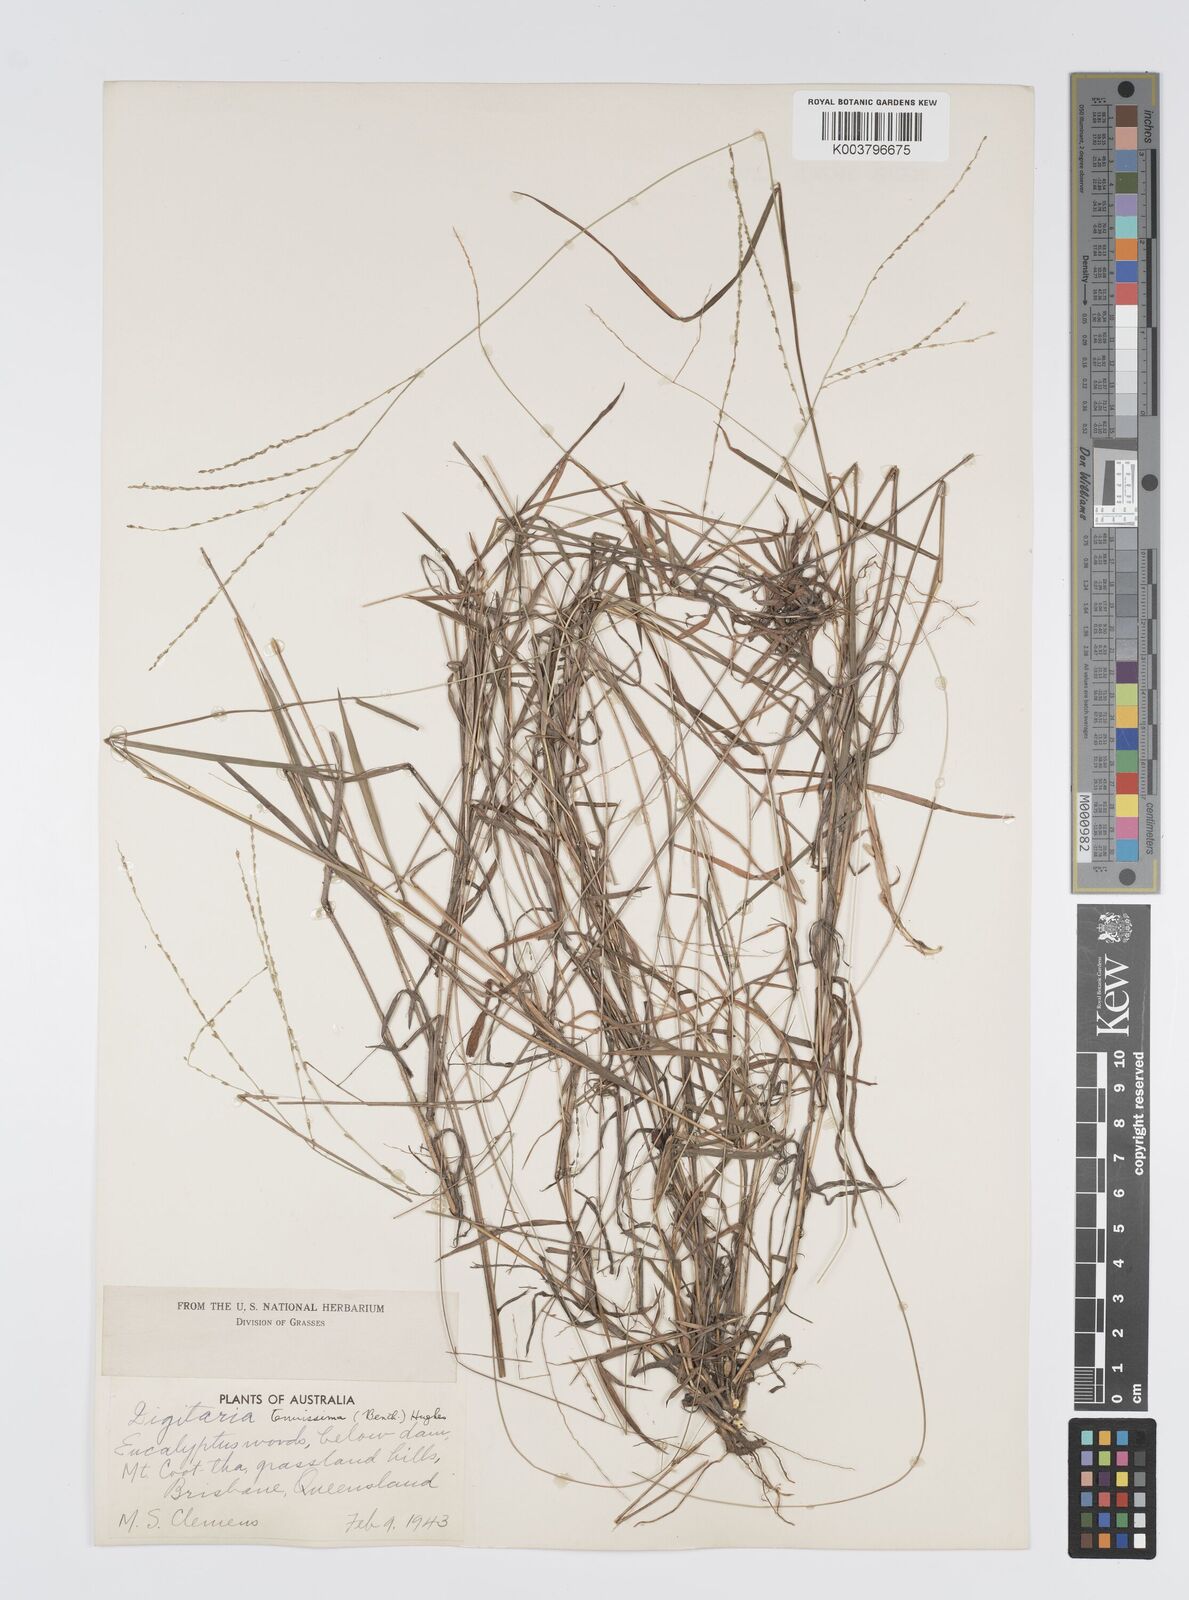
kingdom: Plantae
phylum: Tracheophyta
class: Liliopsida
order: Poales
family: Poaceae
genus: Digitaria
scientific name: Digitaria ramularis
